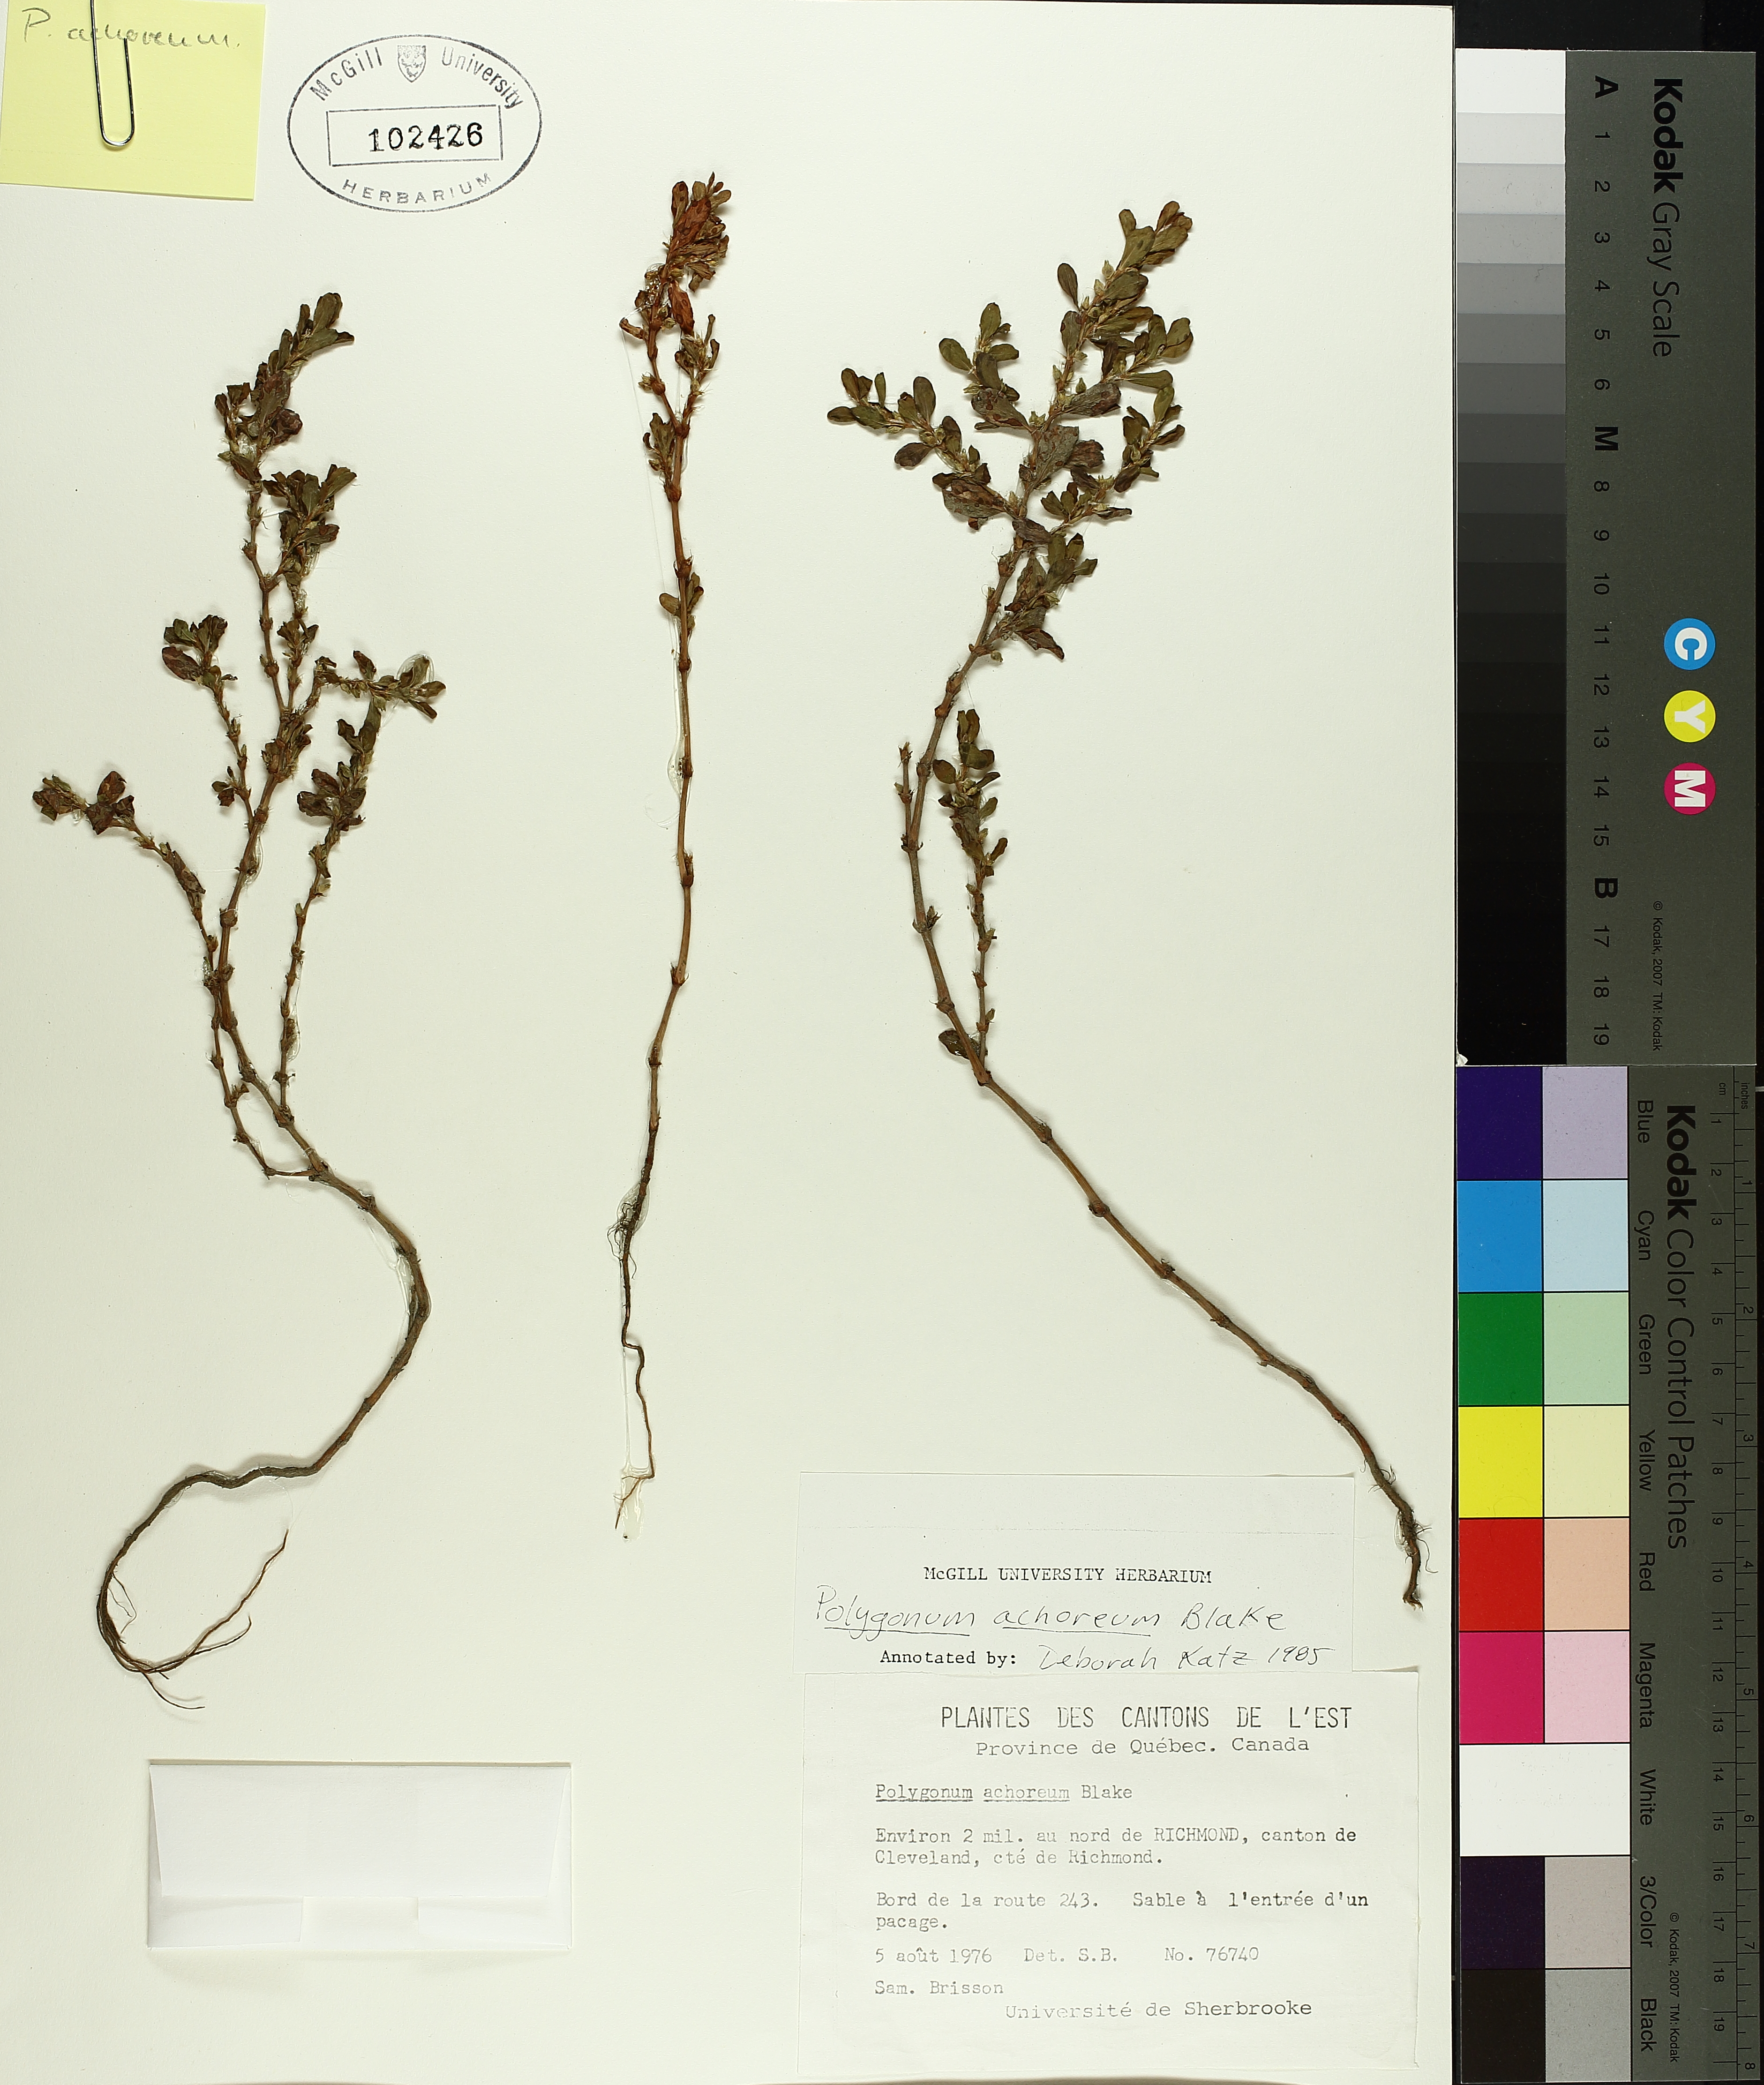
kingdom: Plantae
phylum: Tracheophyta
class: Magnoliopsida
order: Caryophyllales
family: Polygonaceae
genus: Polygonum
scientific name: Polygonum achoreum
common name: Striate knotweed
